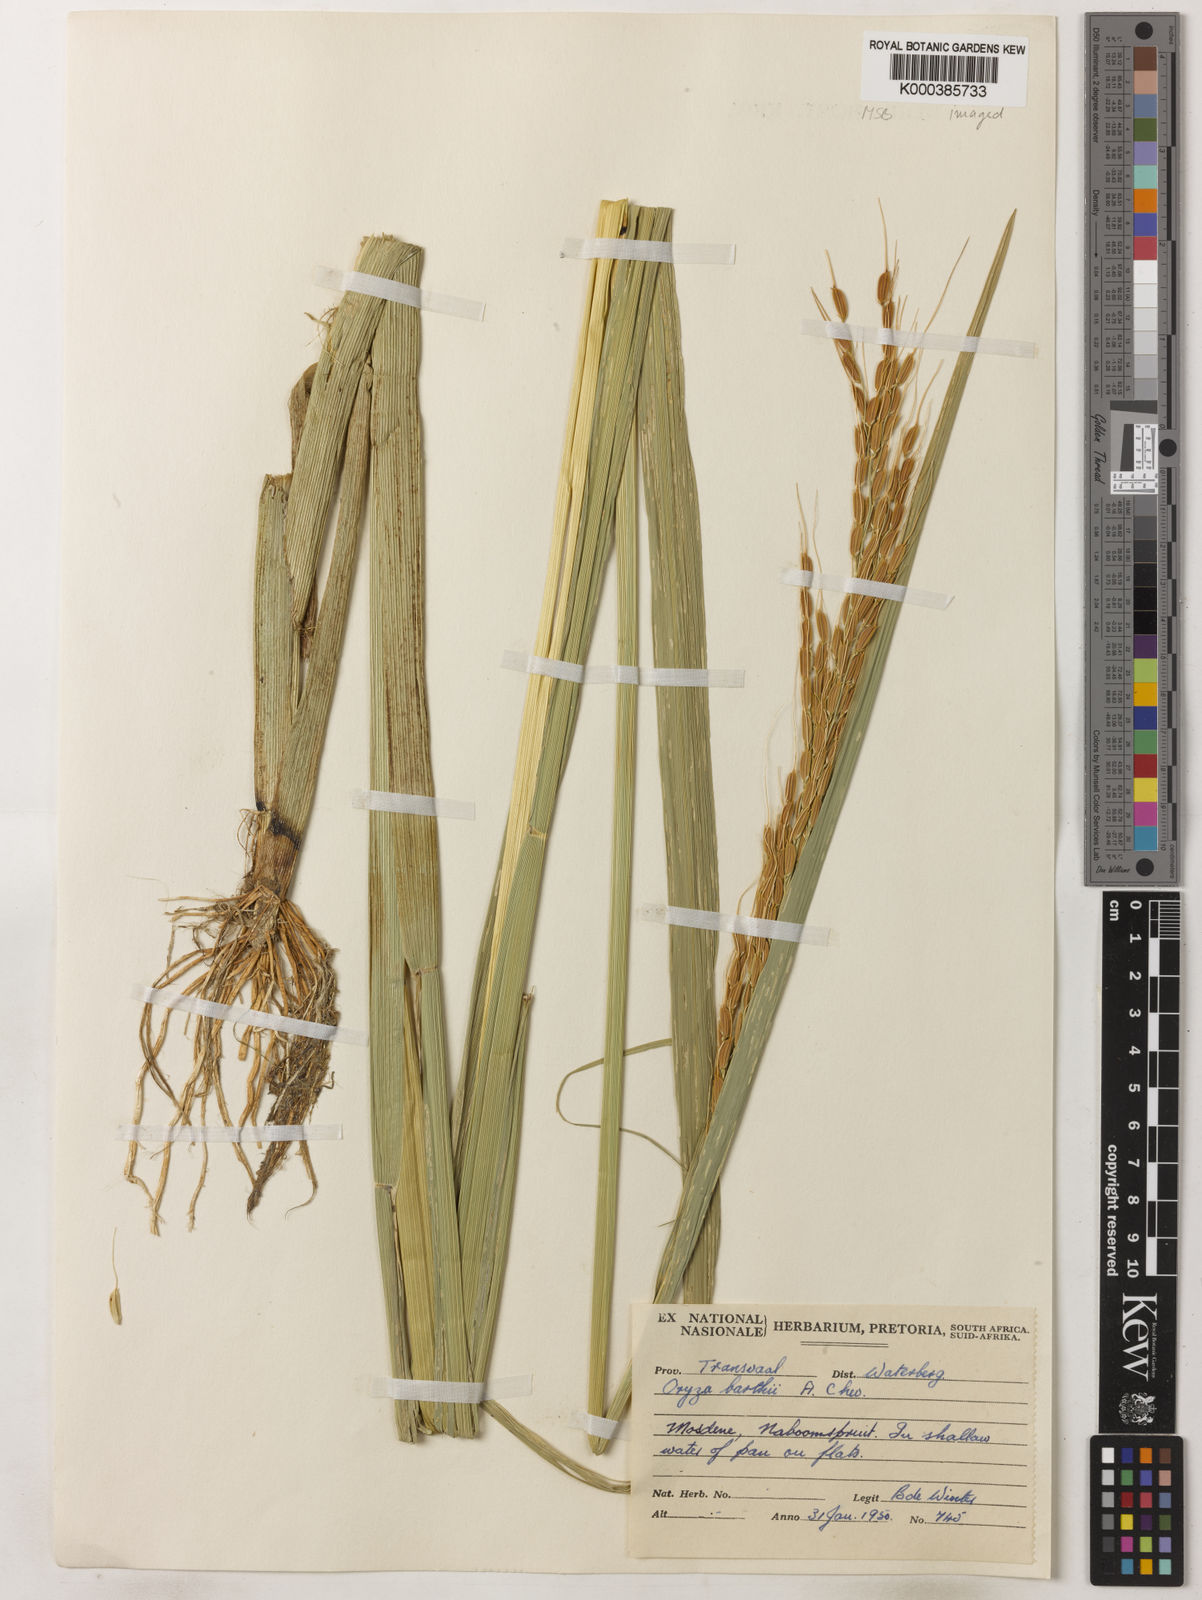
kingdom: Plantae
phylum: Tracheophyta
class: Liliopsida
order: Poales
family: Poaceae
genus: Oryza
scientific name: Oryza longistaminata
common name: Red rice
